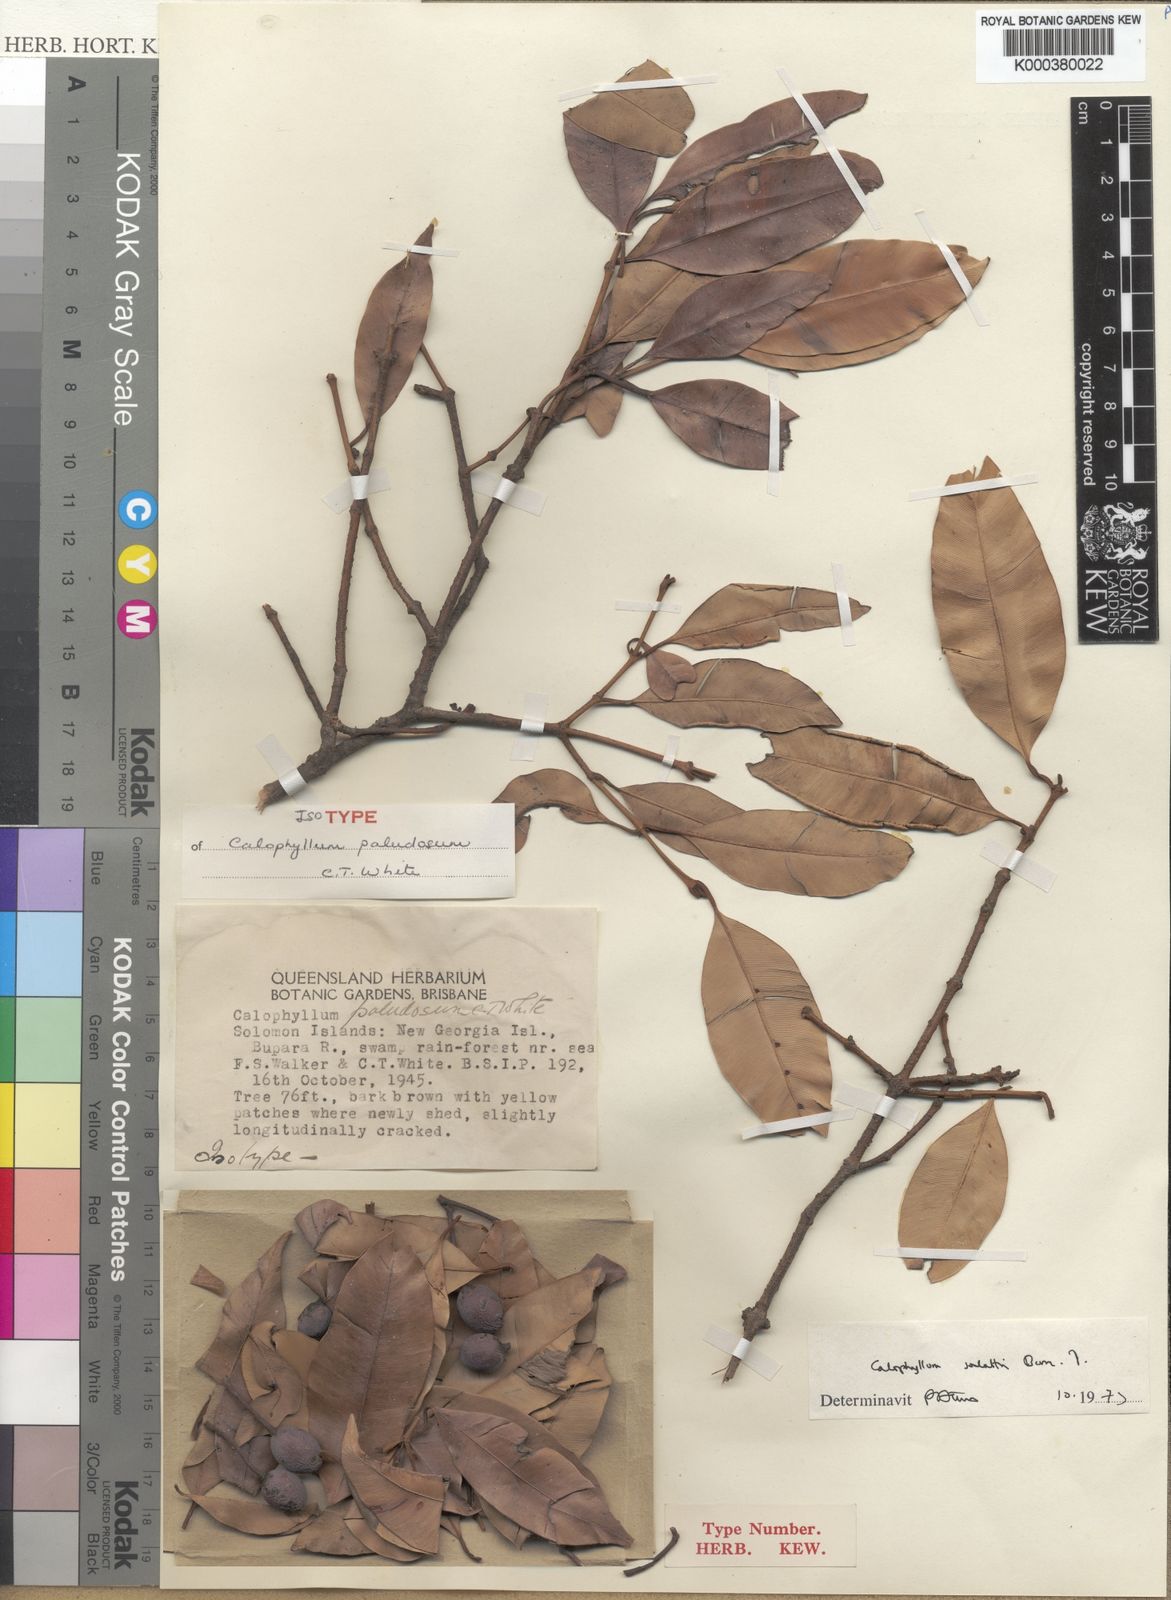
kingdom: Plantae
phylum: Tracheophyta
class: Magnoliopsida
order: Malpighiales
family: Calophyllaceae
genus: Calophyllum
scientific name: Calophyllum soulattri
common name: Bitangoor boonot
